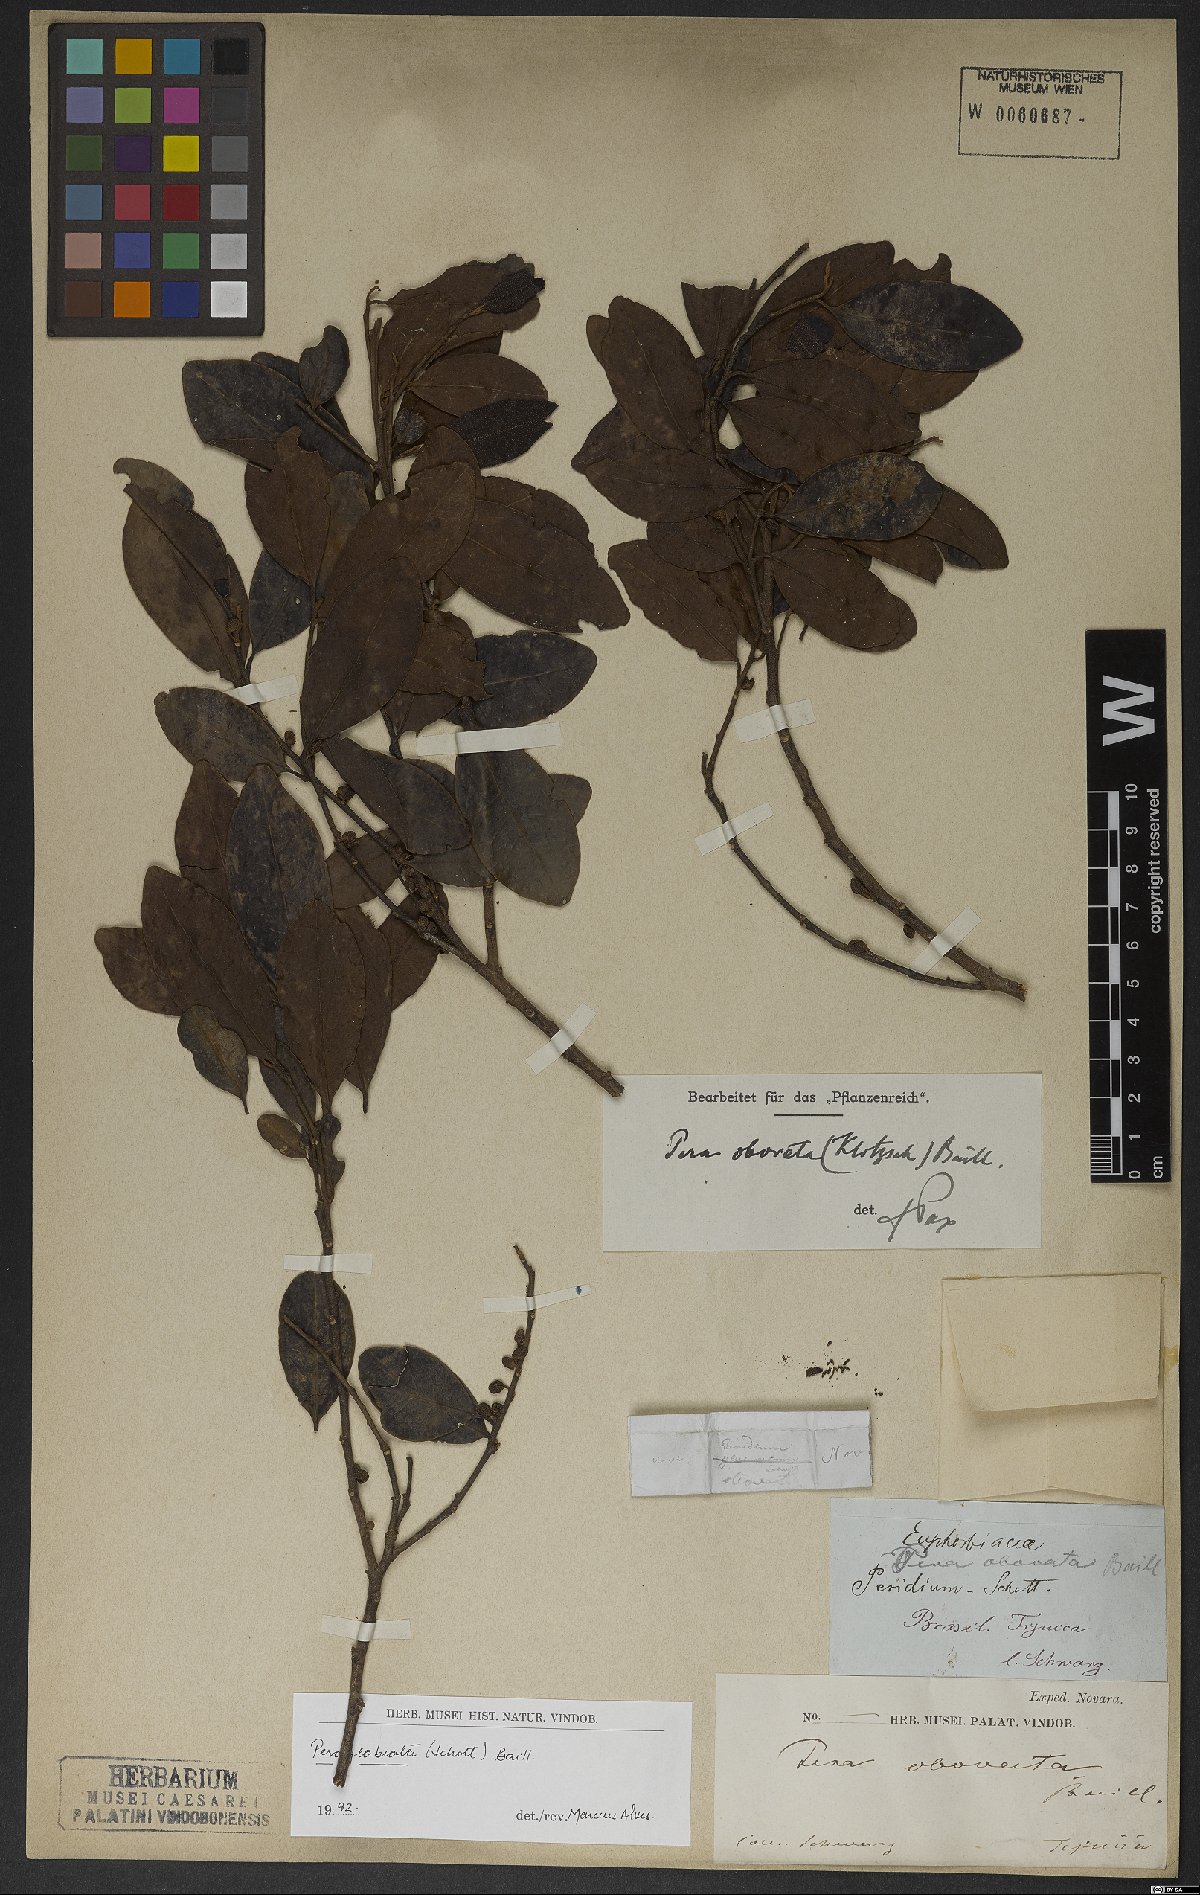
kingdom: Plantae
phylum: Tracheophyta
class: Magnoliopsida
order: Malpighiales
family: Peraceae
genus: Pera
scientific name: Pera glabrata
